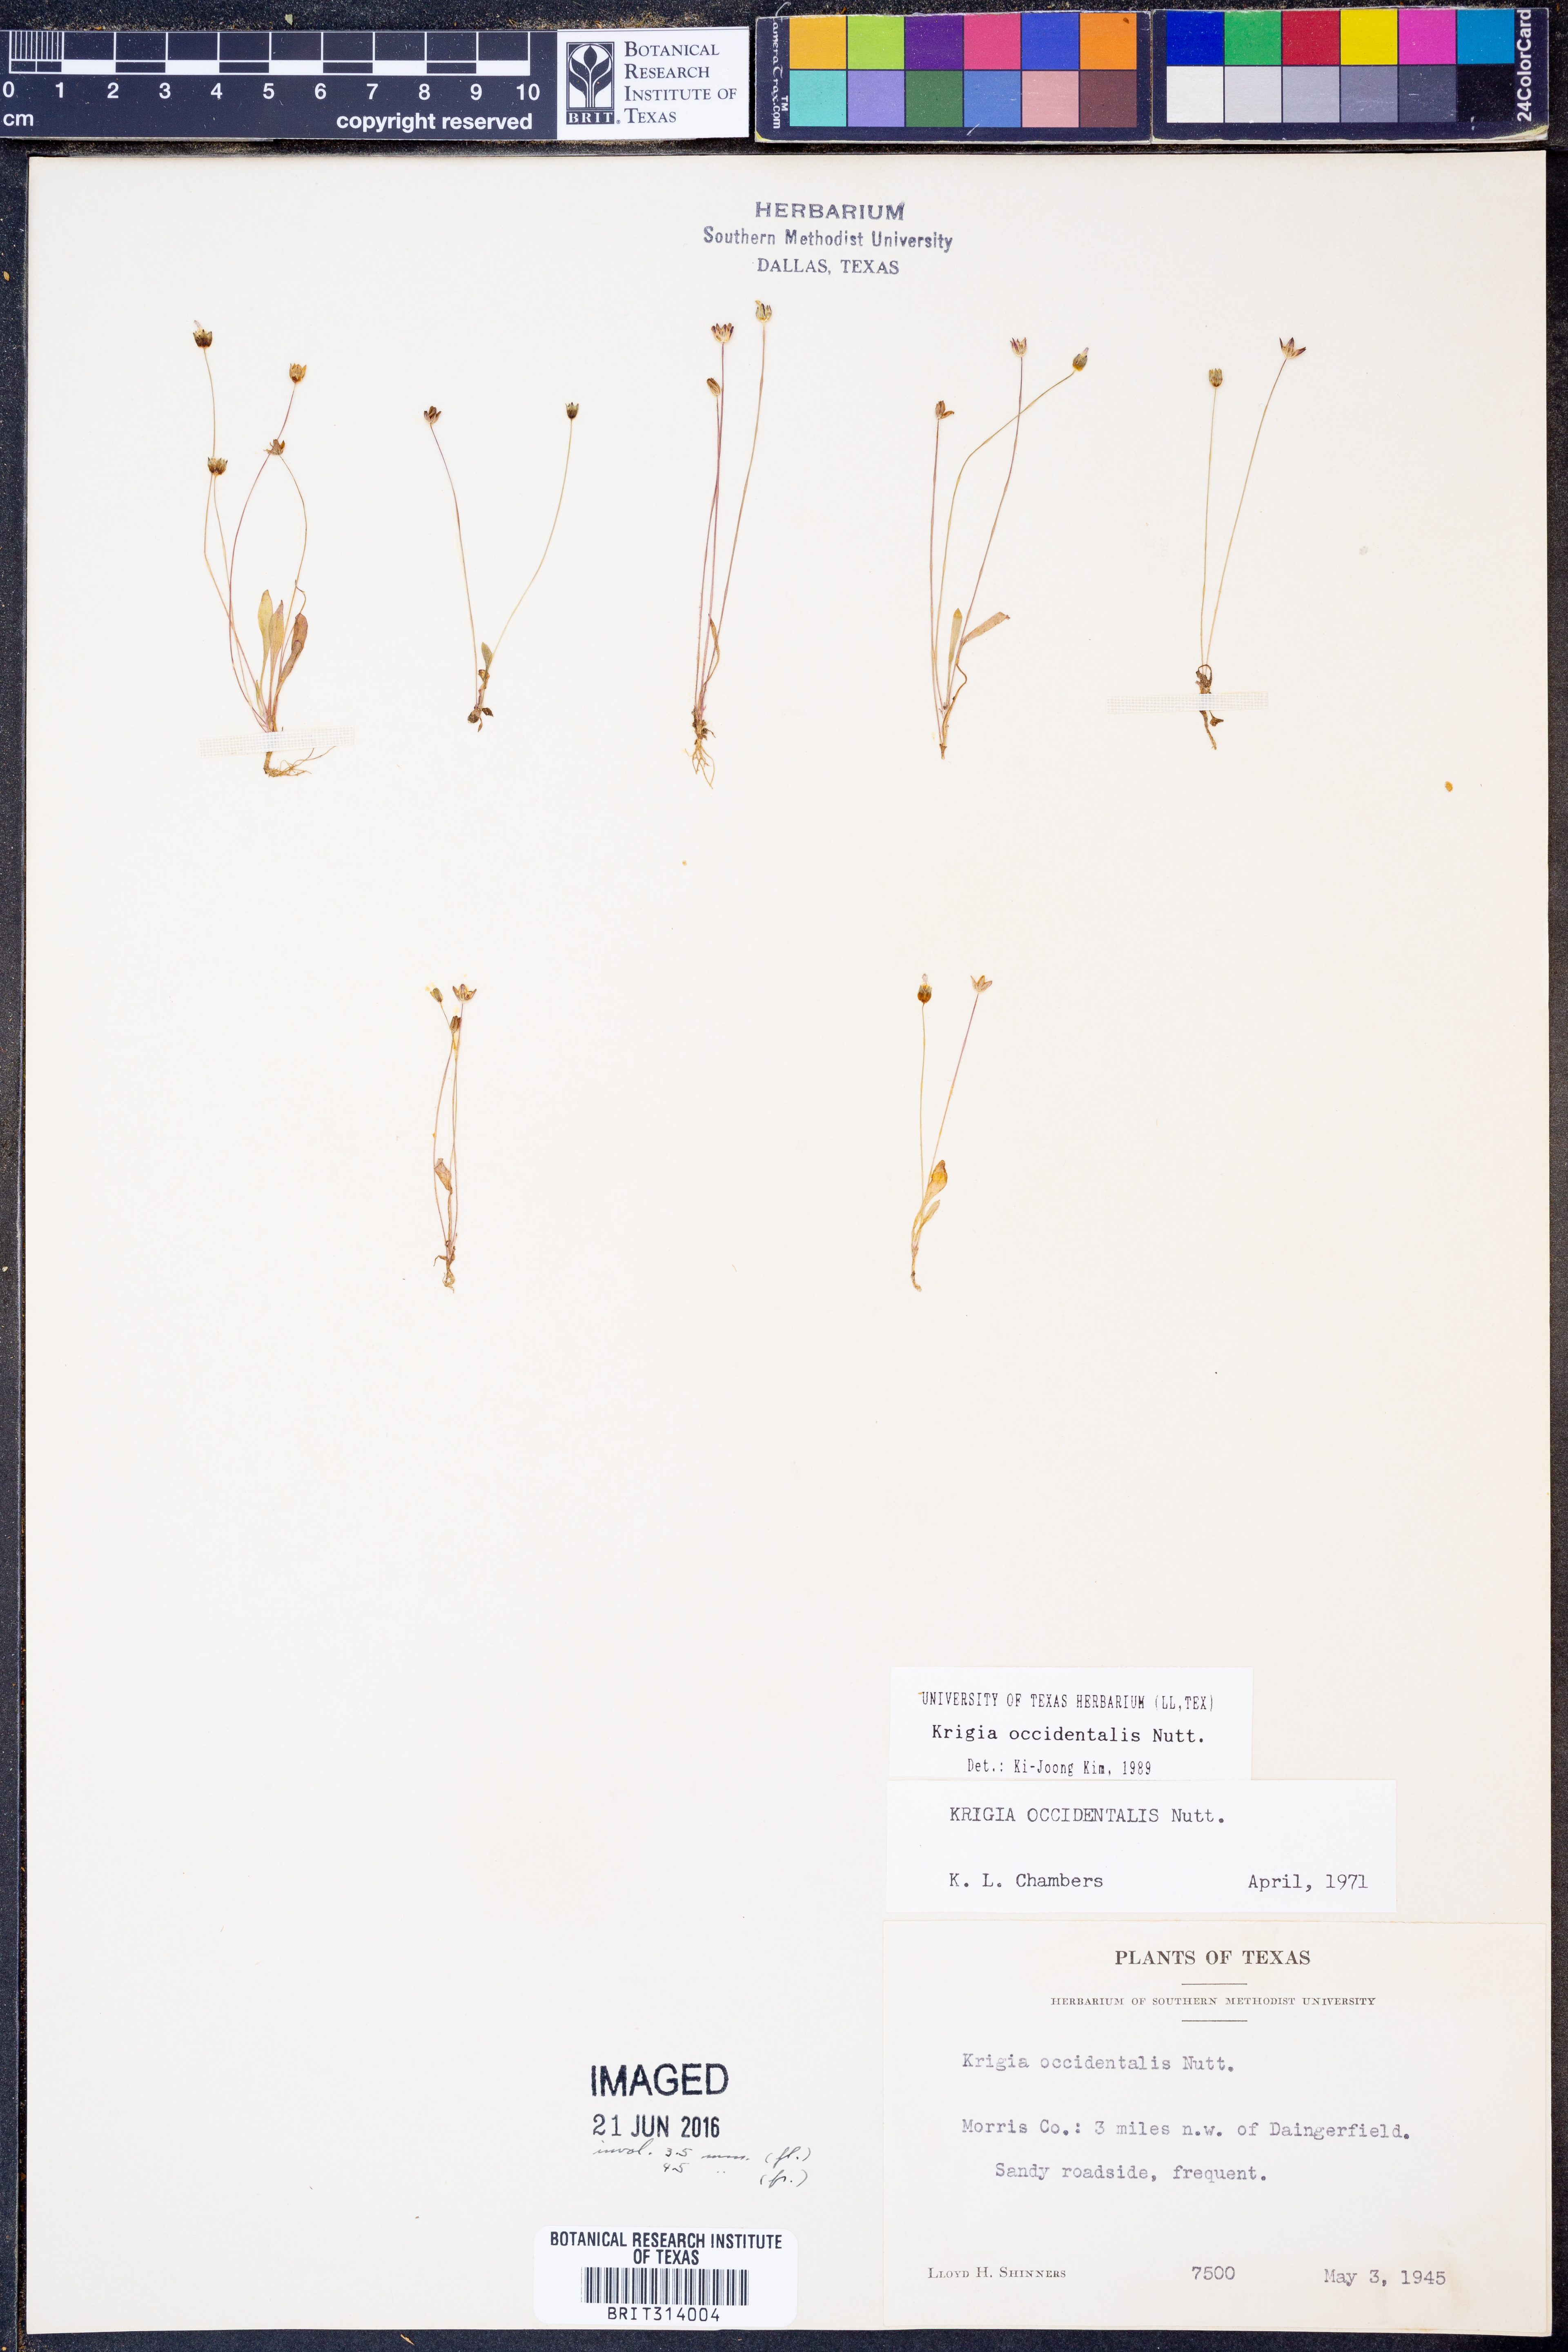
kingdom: Plantae
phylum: Tracheophyta
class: Magnoliopsida
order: Asterales
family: Asteraceae
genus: Krigia
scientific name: Krigia occidentalis
